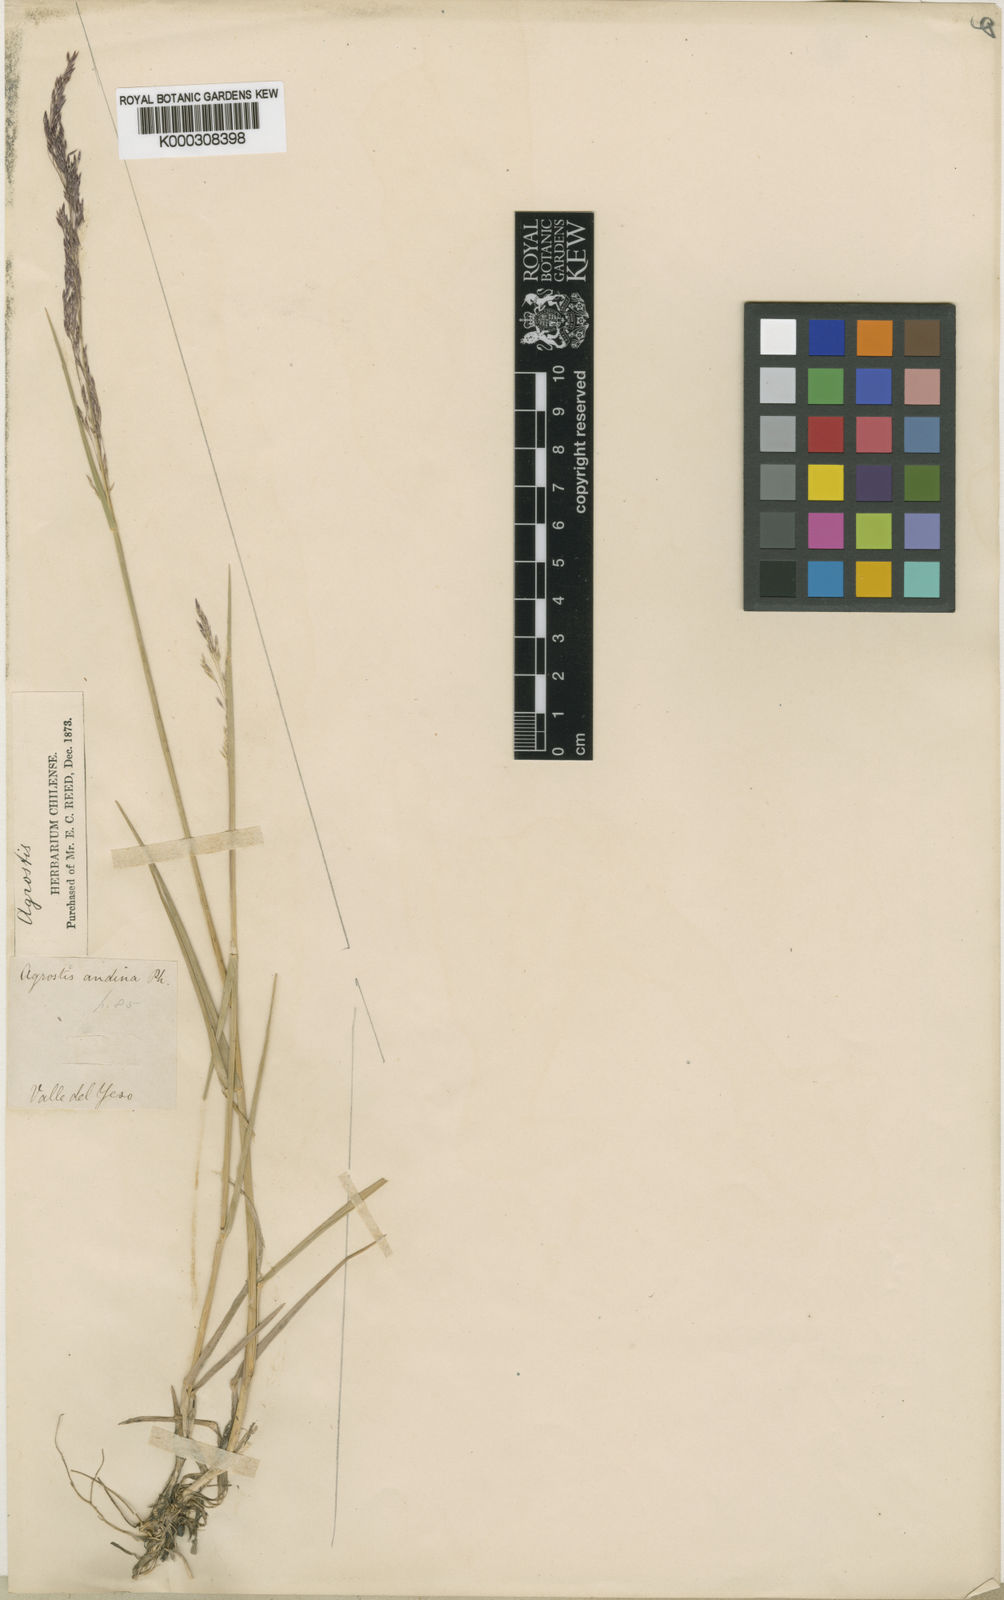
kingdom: Plantae
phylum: Tracheophyta
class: Liliopsida
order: Poales
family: Poaceae
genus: Agrostis
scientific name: Agrostis glabra
